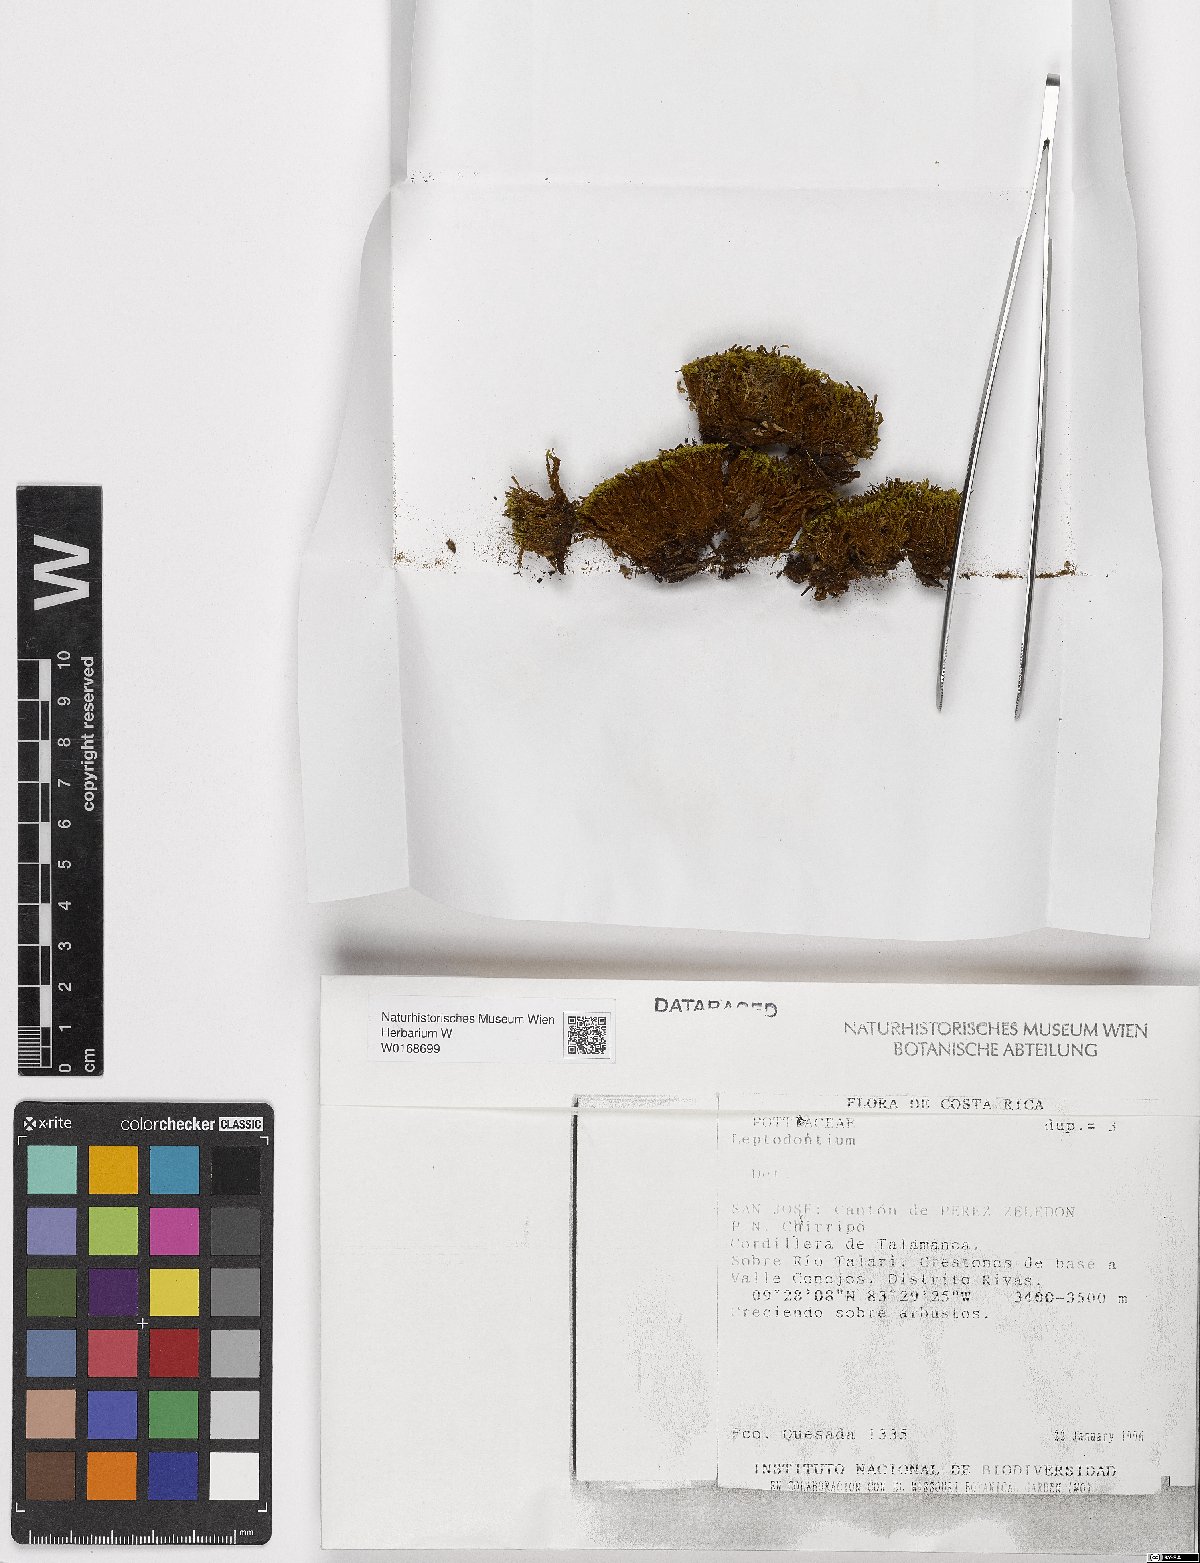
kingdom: Plantae
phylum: Bryophyta
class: Bryopsida
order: Pottiales
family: Pottiaceae
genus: Leptodontium
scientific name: Leptodontium
